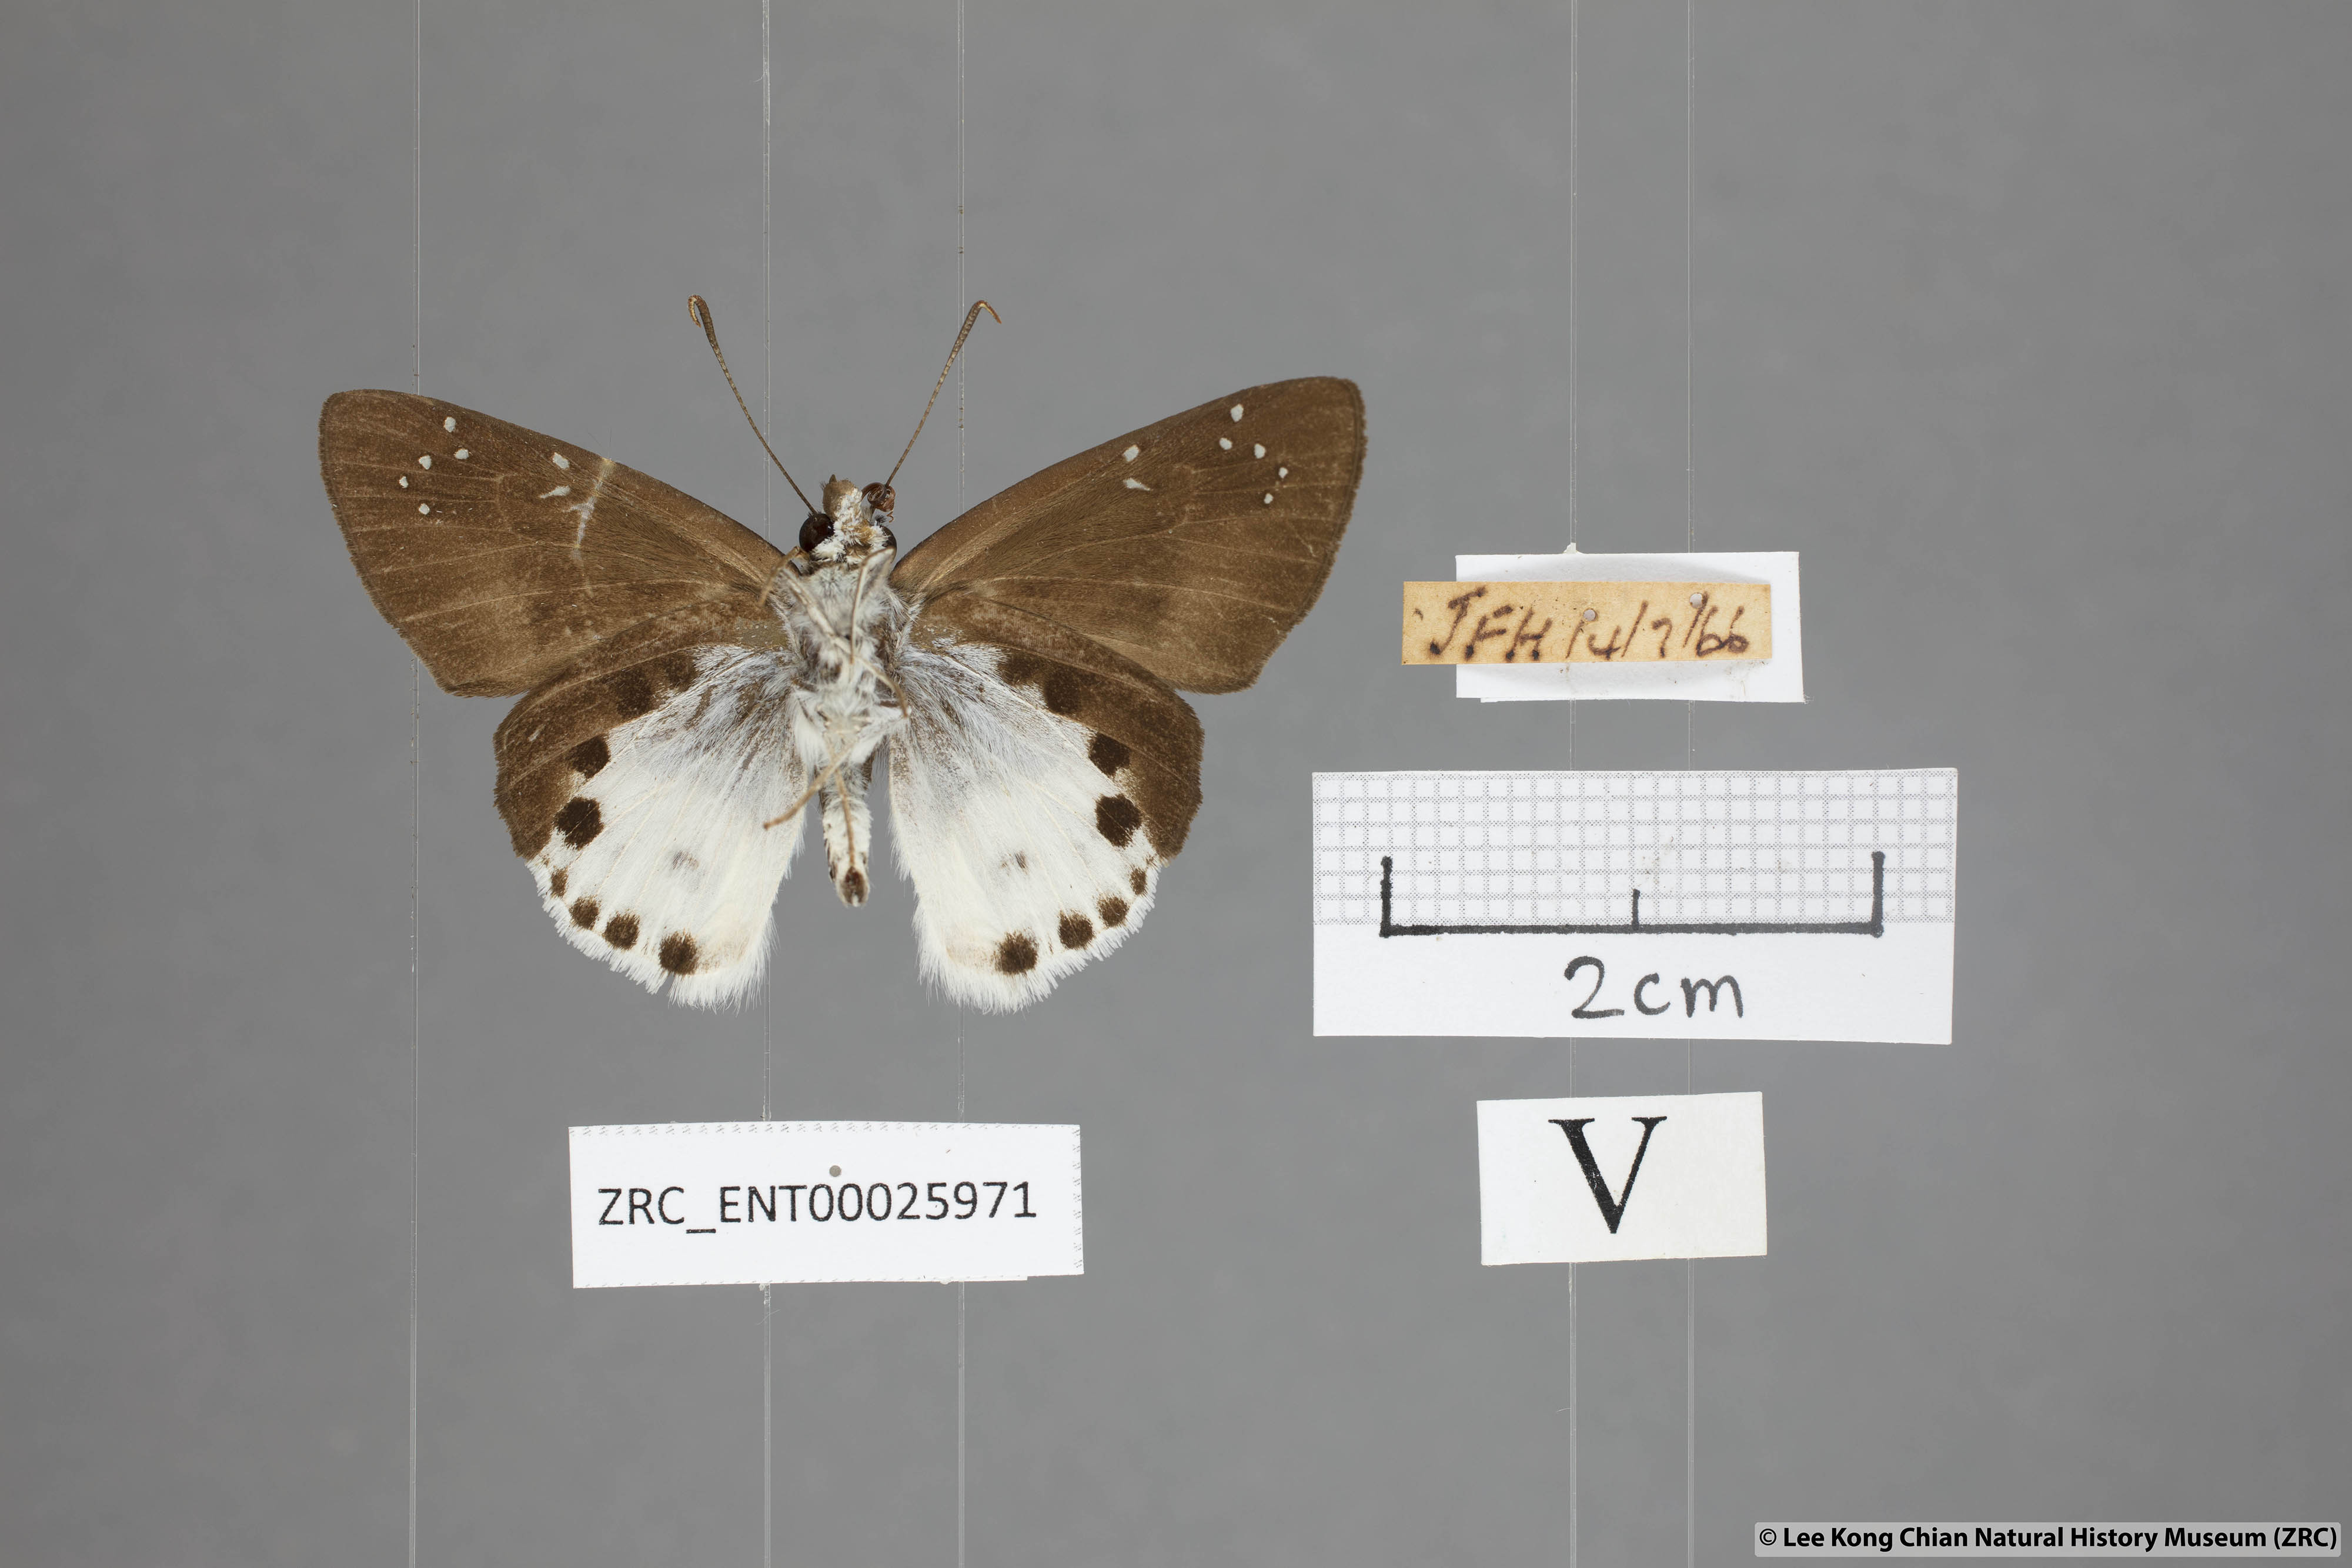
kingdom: Animalia
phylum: Arthropoda
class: Insecta
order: Lepidoptera
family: Hesperiidae
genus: Tagiades
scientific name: Tagiades cohaerens
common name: White-striped snow flat
